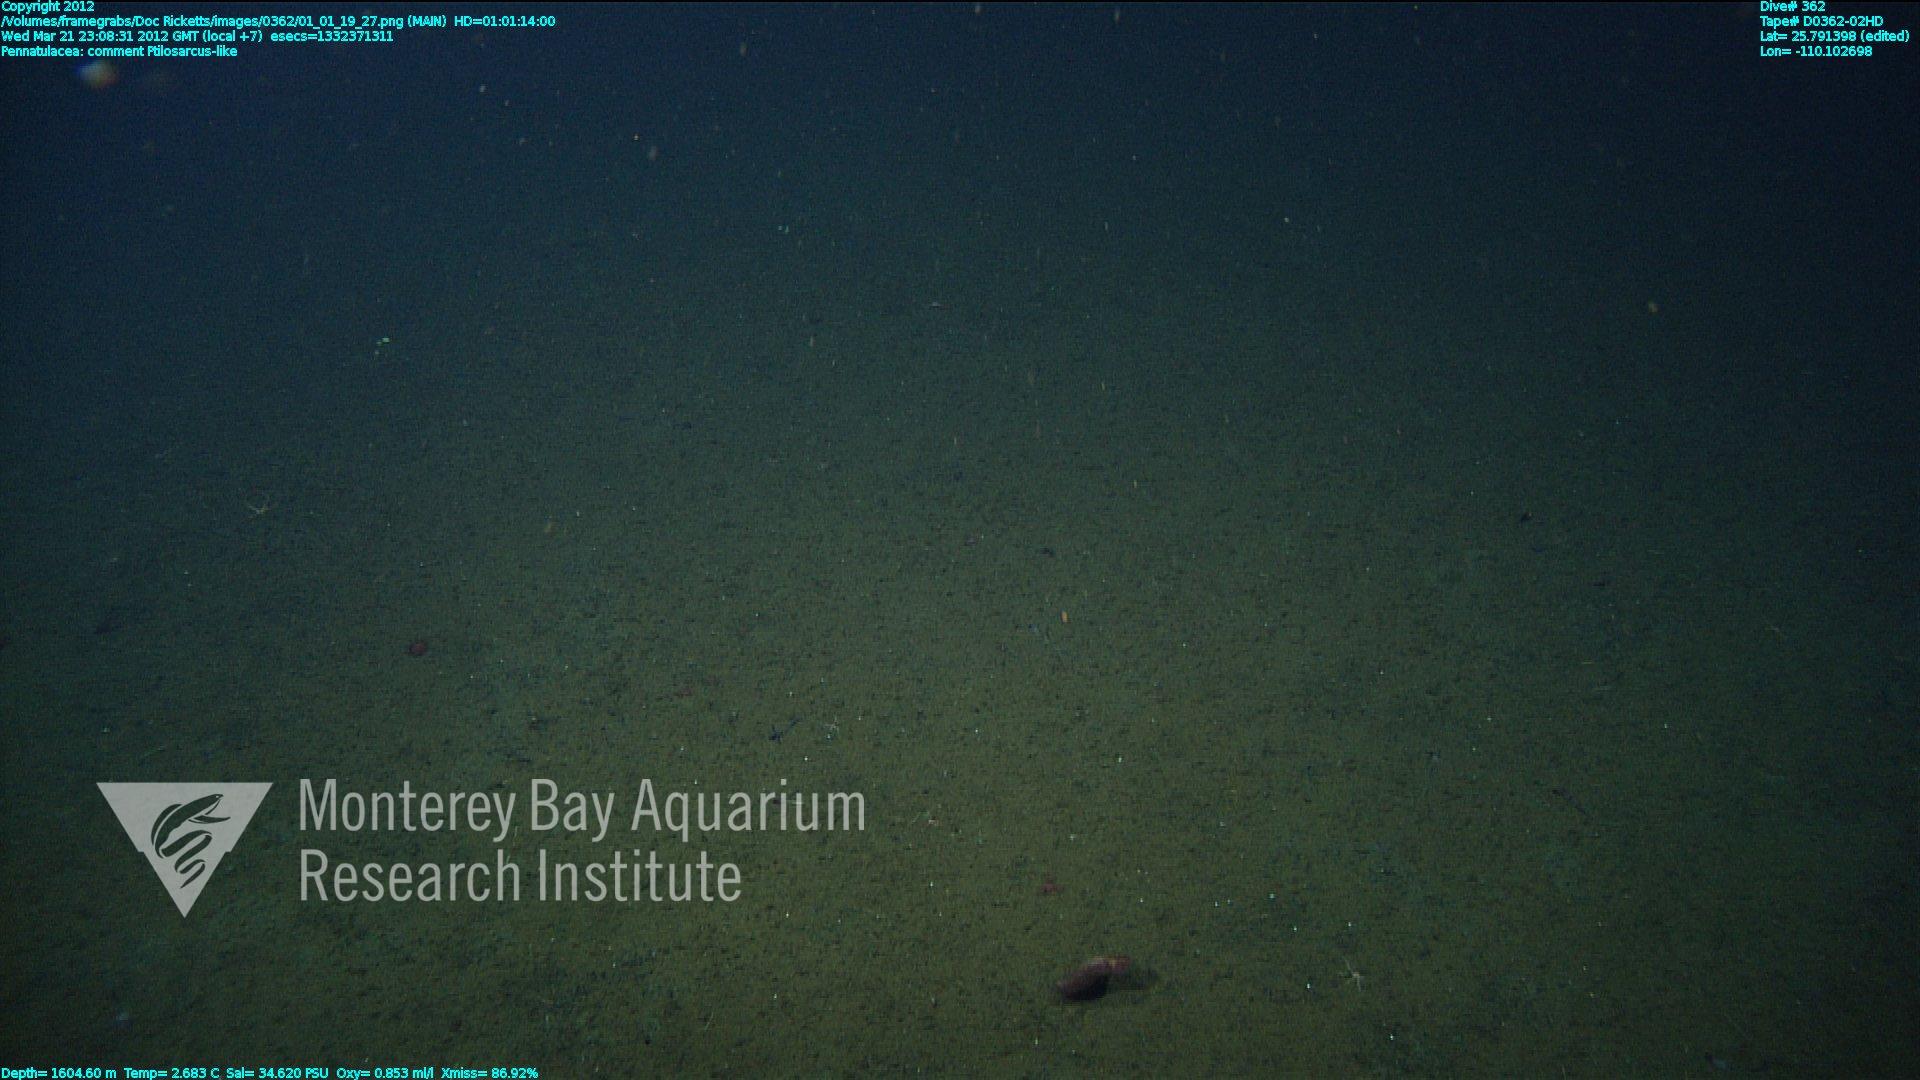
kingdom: Animalia
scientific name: Animalia
